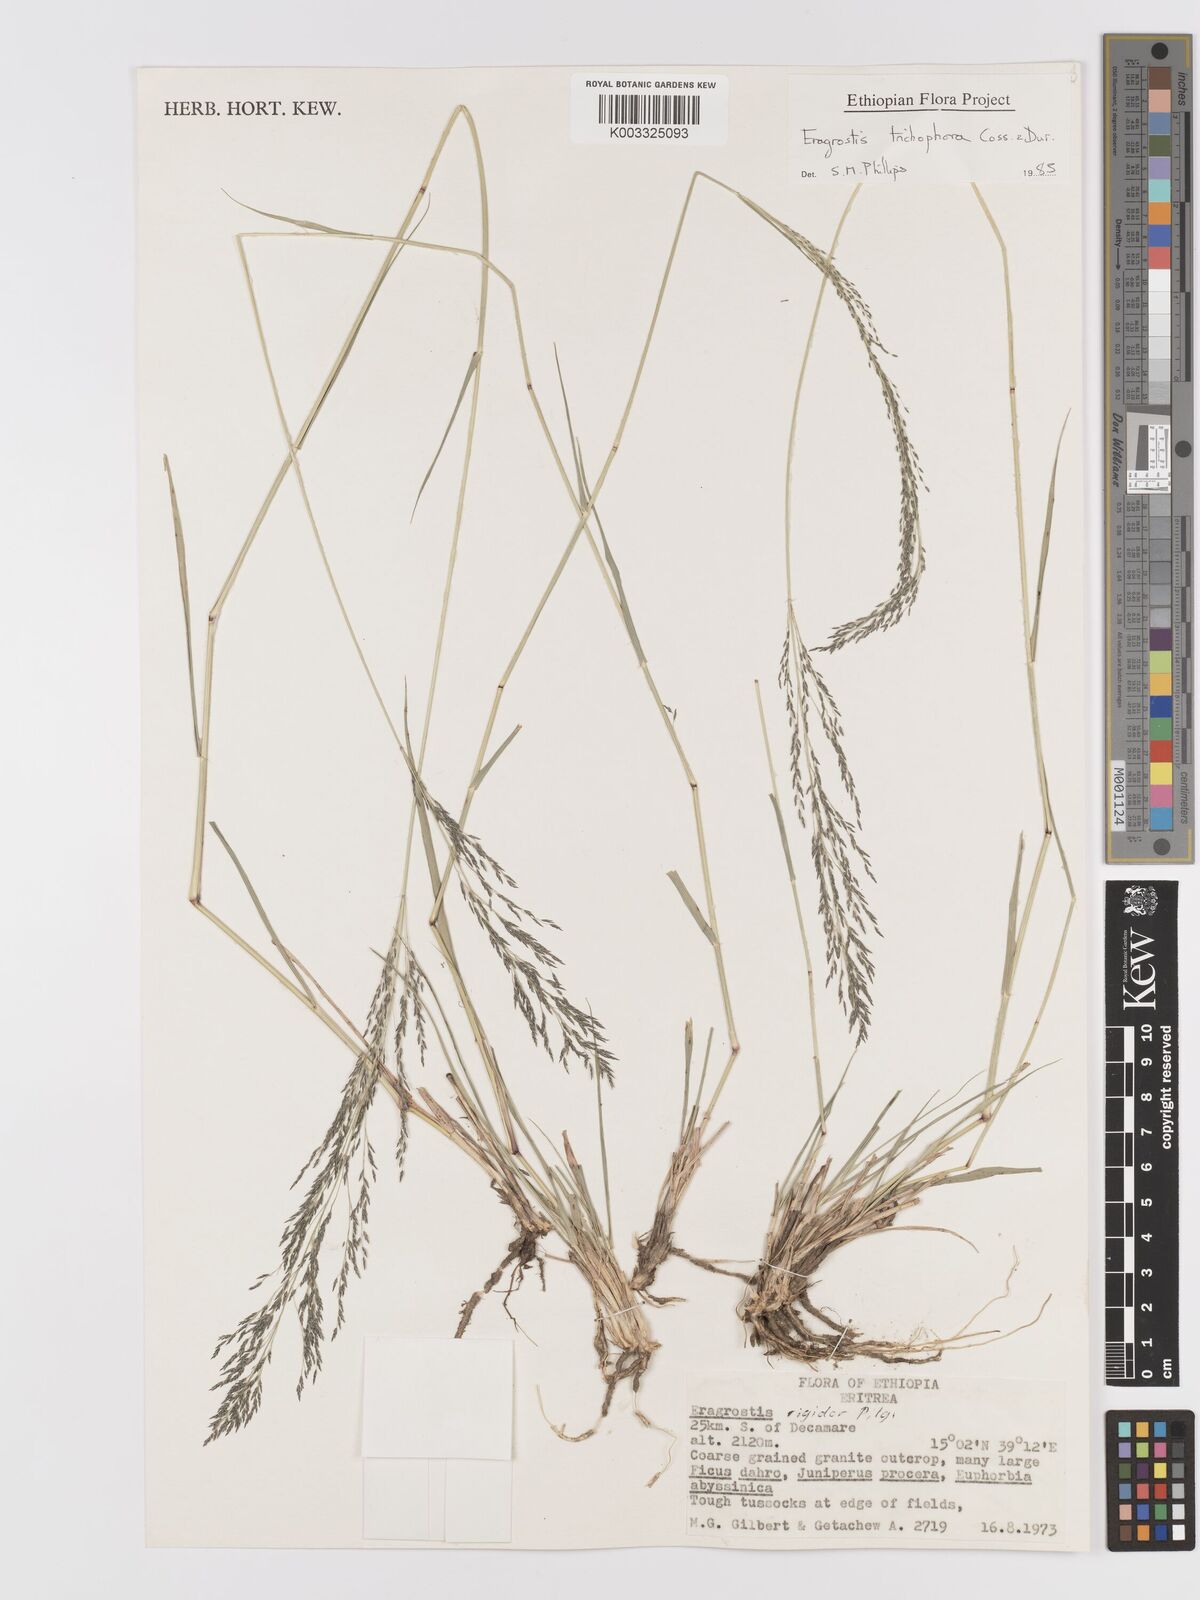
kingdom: Plantae
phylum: Tracheophyta
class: Liliopsida
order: Poales
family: Poaceae
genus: Eragrostis
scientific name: Eragrostis cylindriflora
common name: Cylinderflower lovegrass
